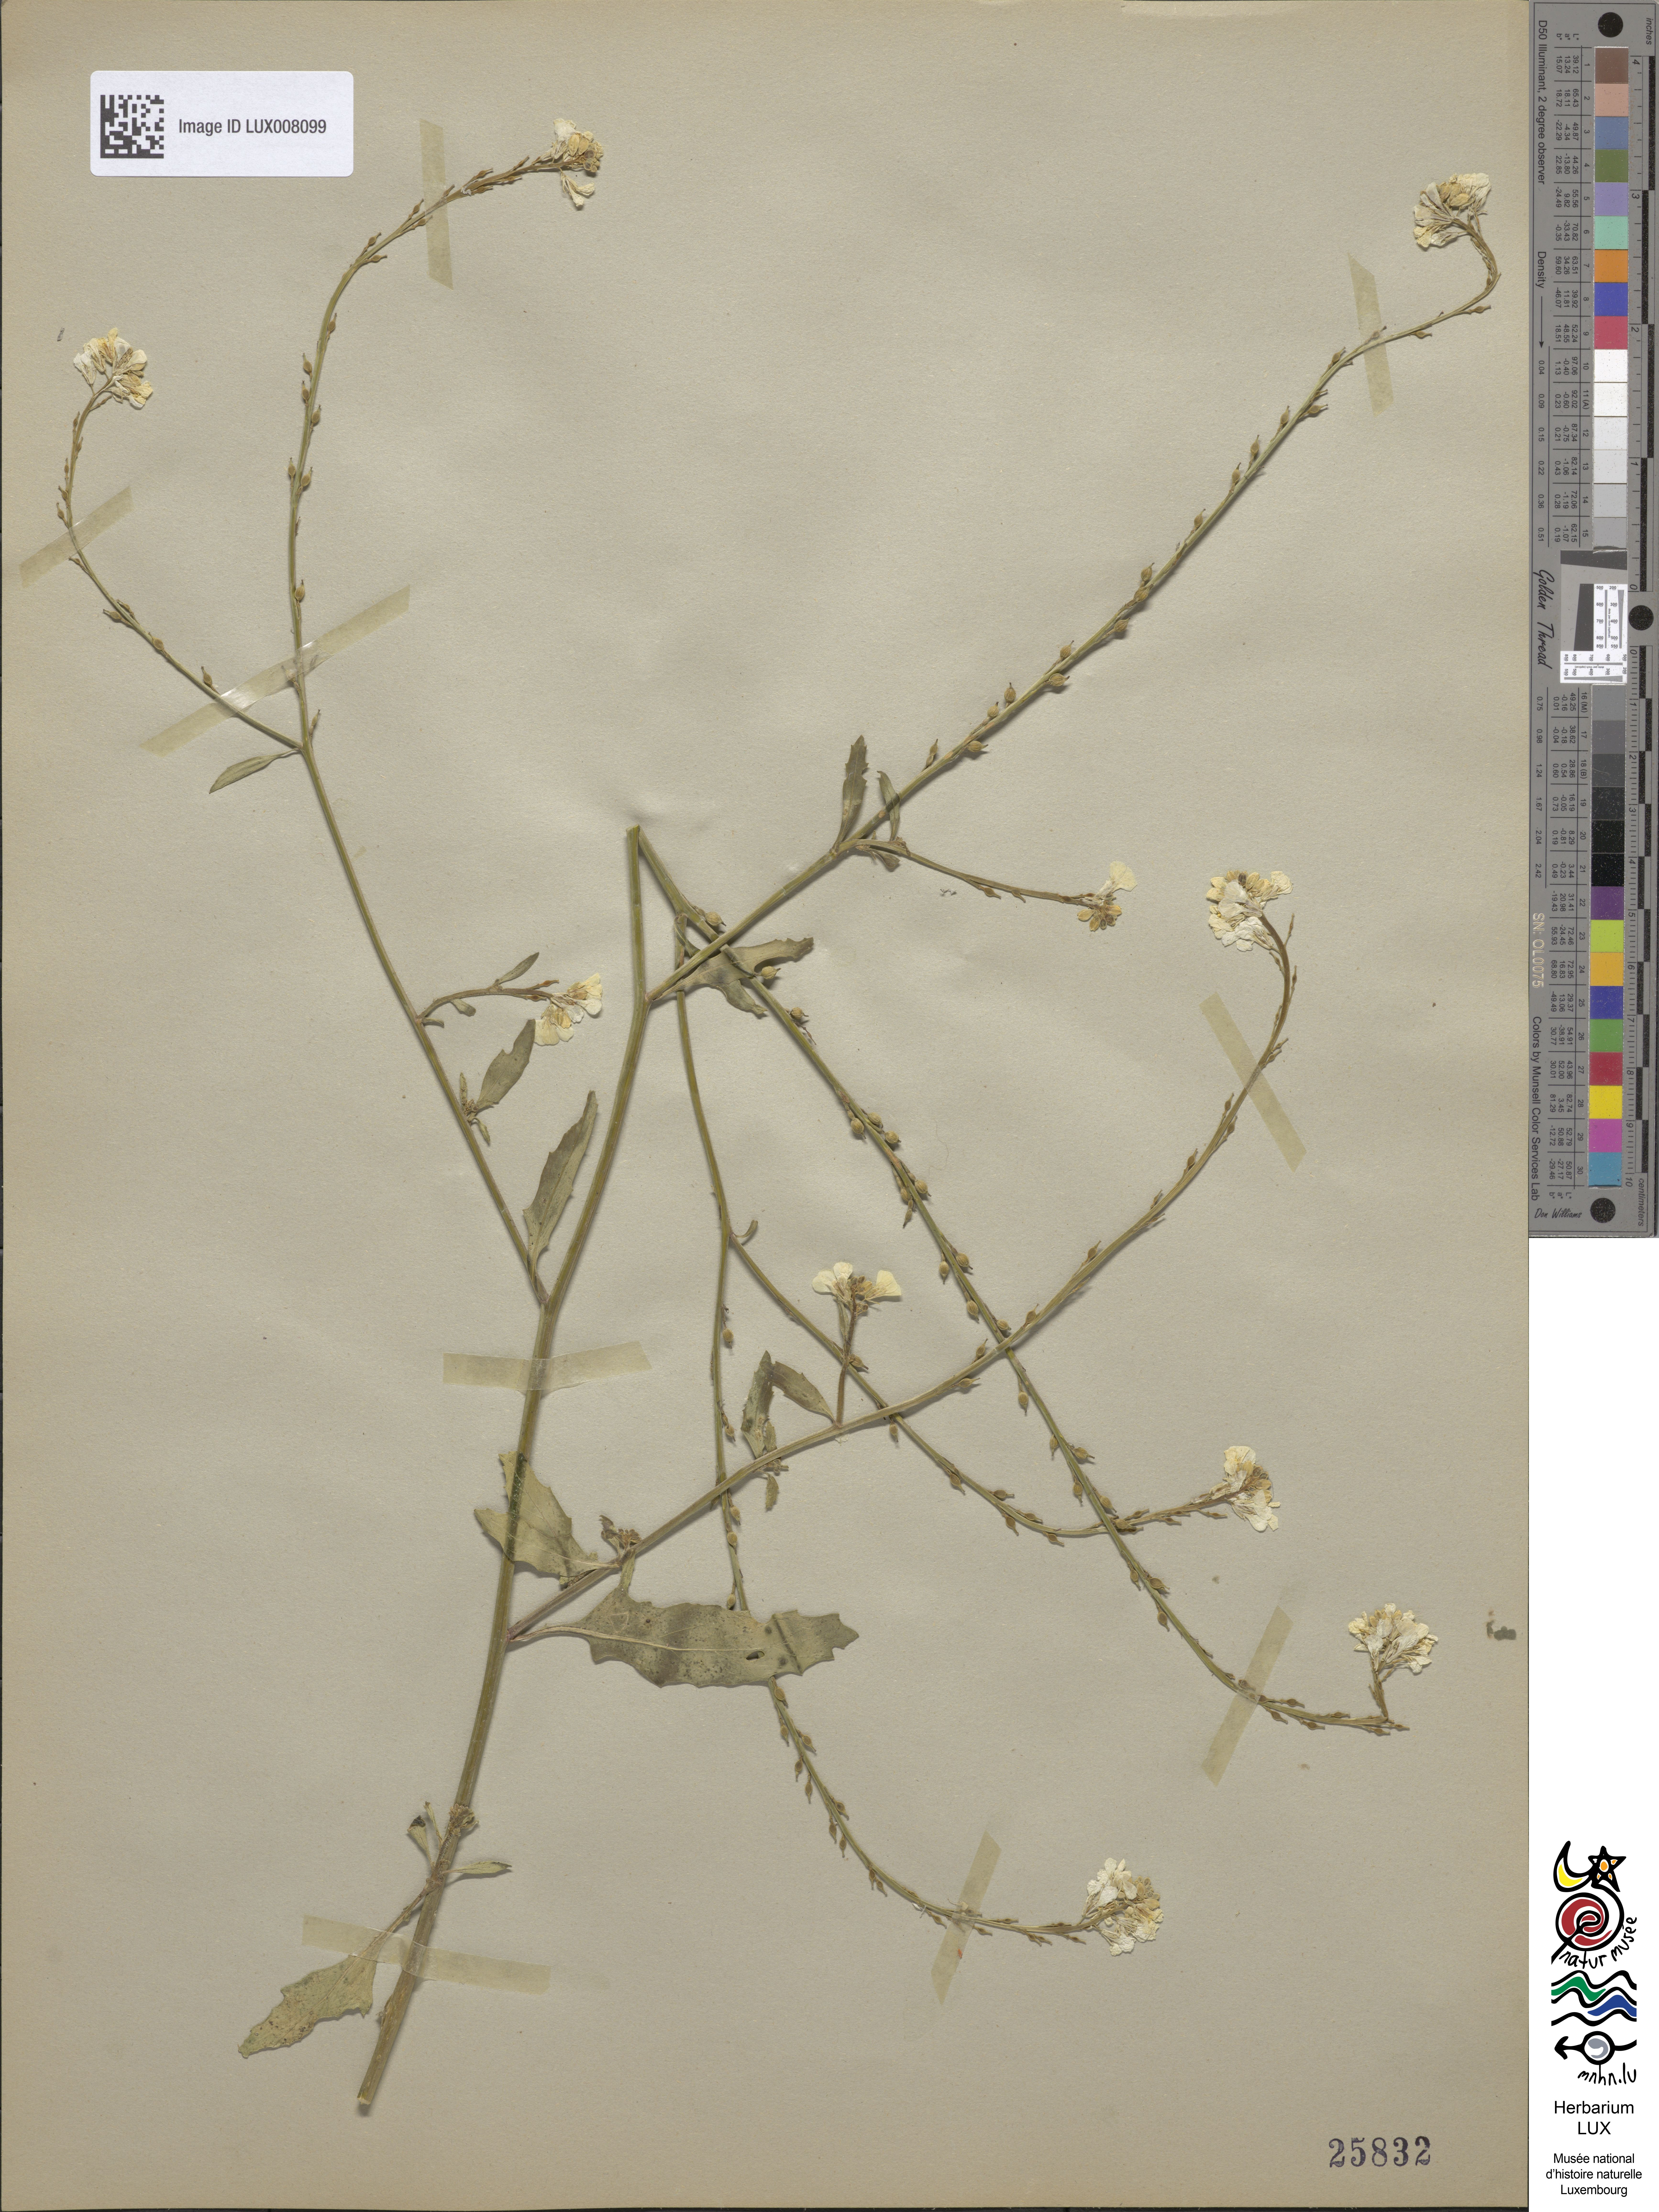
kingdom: Plantae
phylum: Tracheophyta
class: Magnoliopsida
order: Brassicales
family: Brassicaceae
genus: Rapistrum
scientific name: Rapistrum rugosum
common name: Annual bastardcabbage
